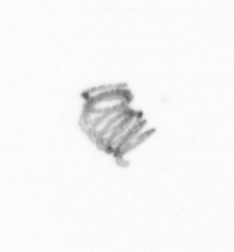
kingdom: Chromista
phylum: Ochrophyta
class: Bacillariophyceae
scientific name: Bacillariophyceae
